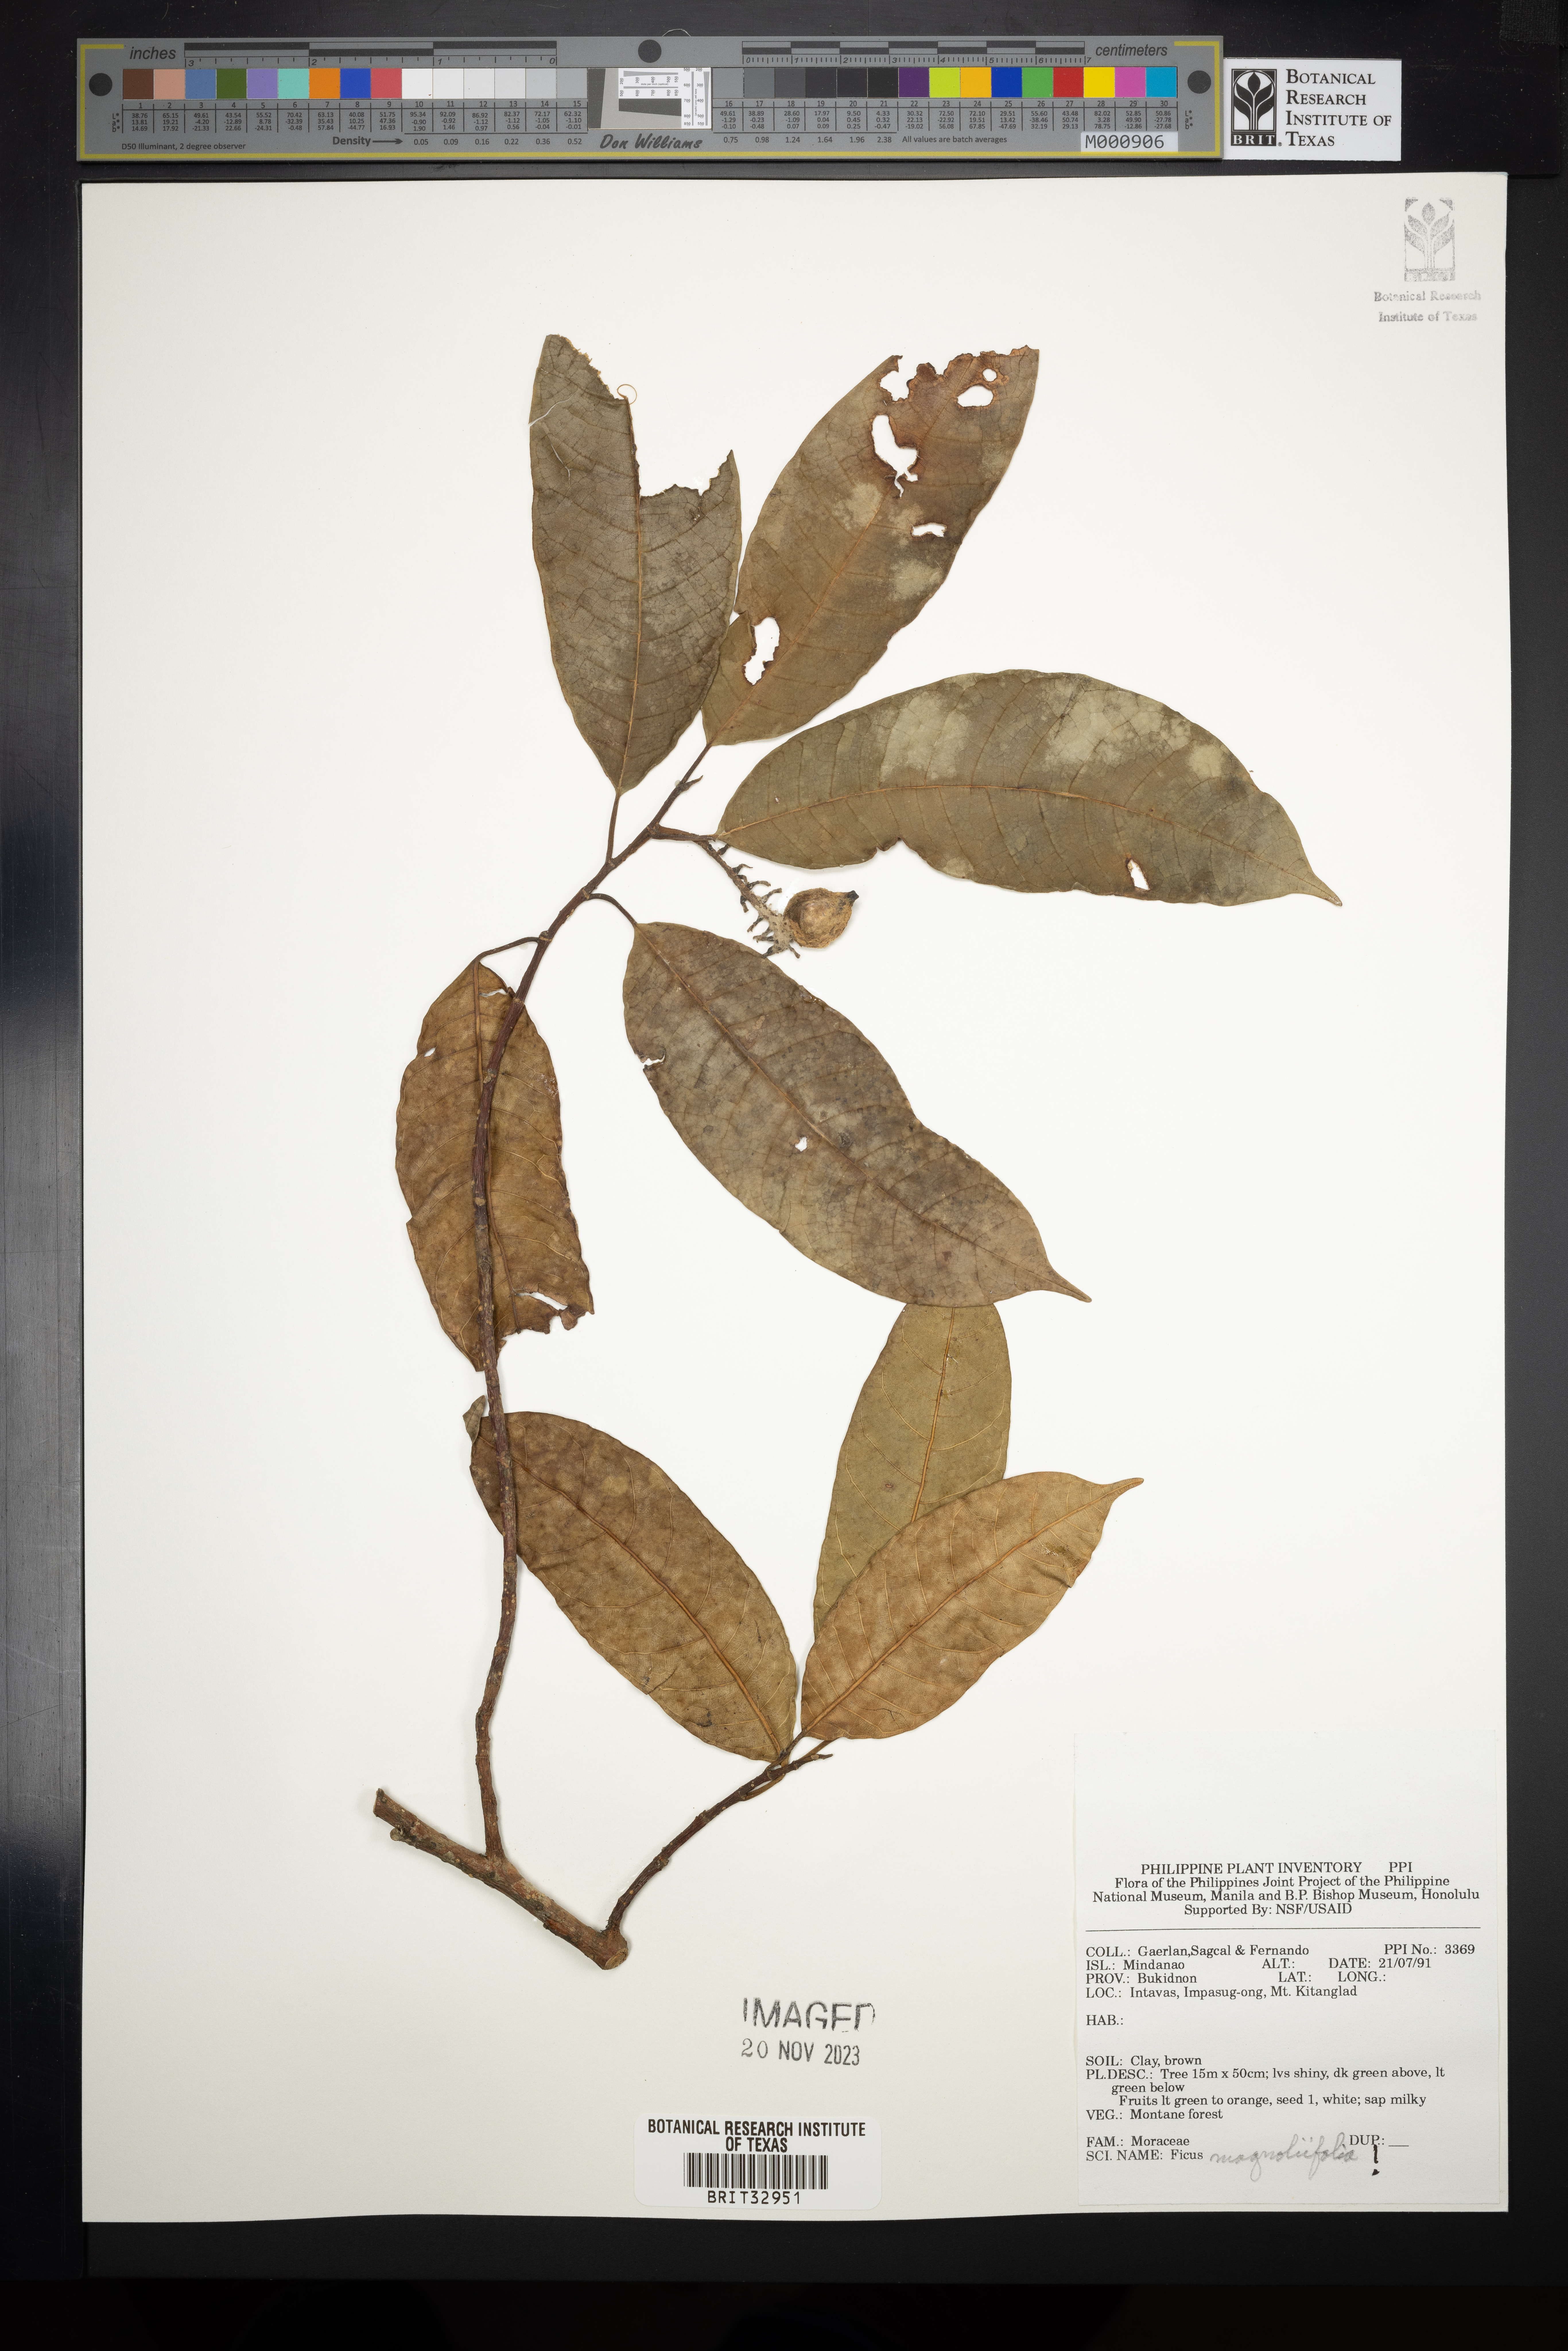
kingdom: Plantae
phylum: Tracheophyta
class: Magnoliopsida
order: Rosales
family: Moraceae
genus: Ficus
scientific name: Ficus magnoliifolia
